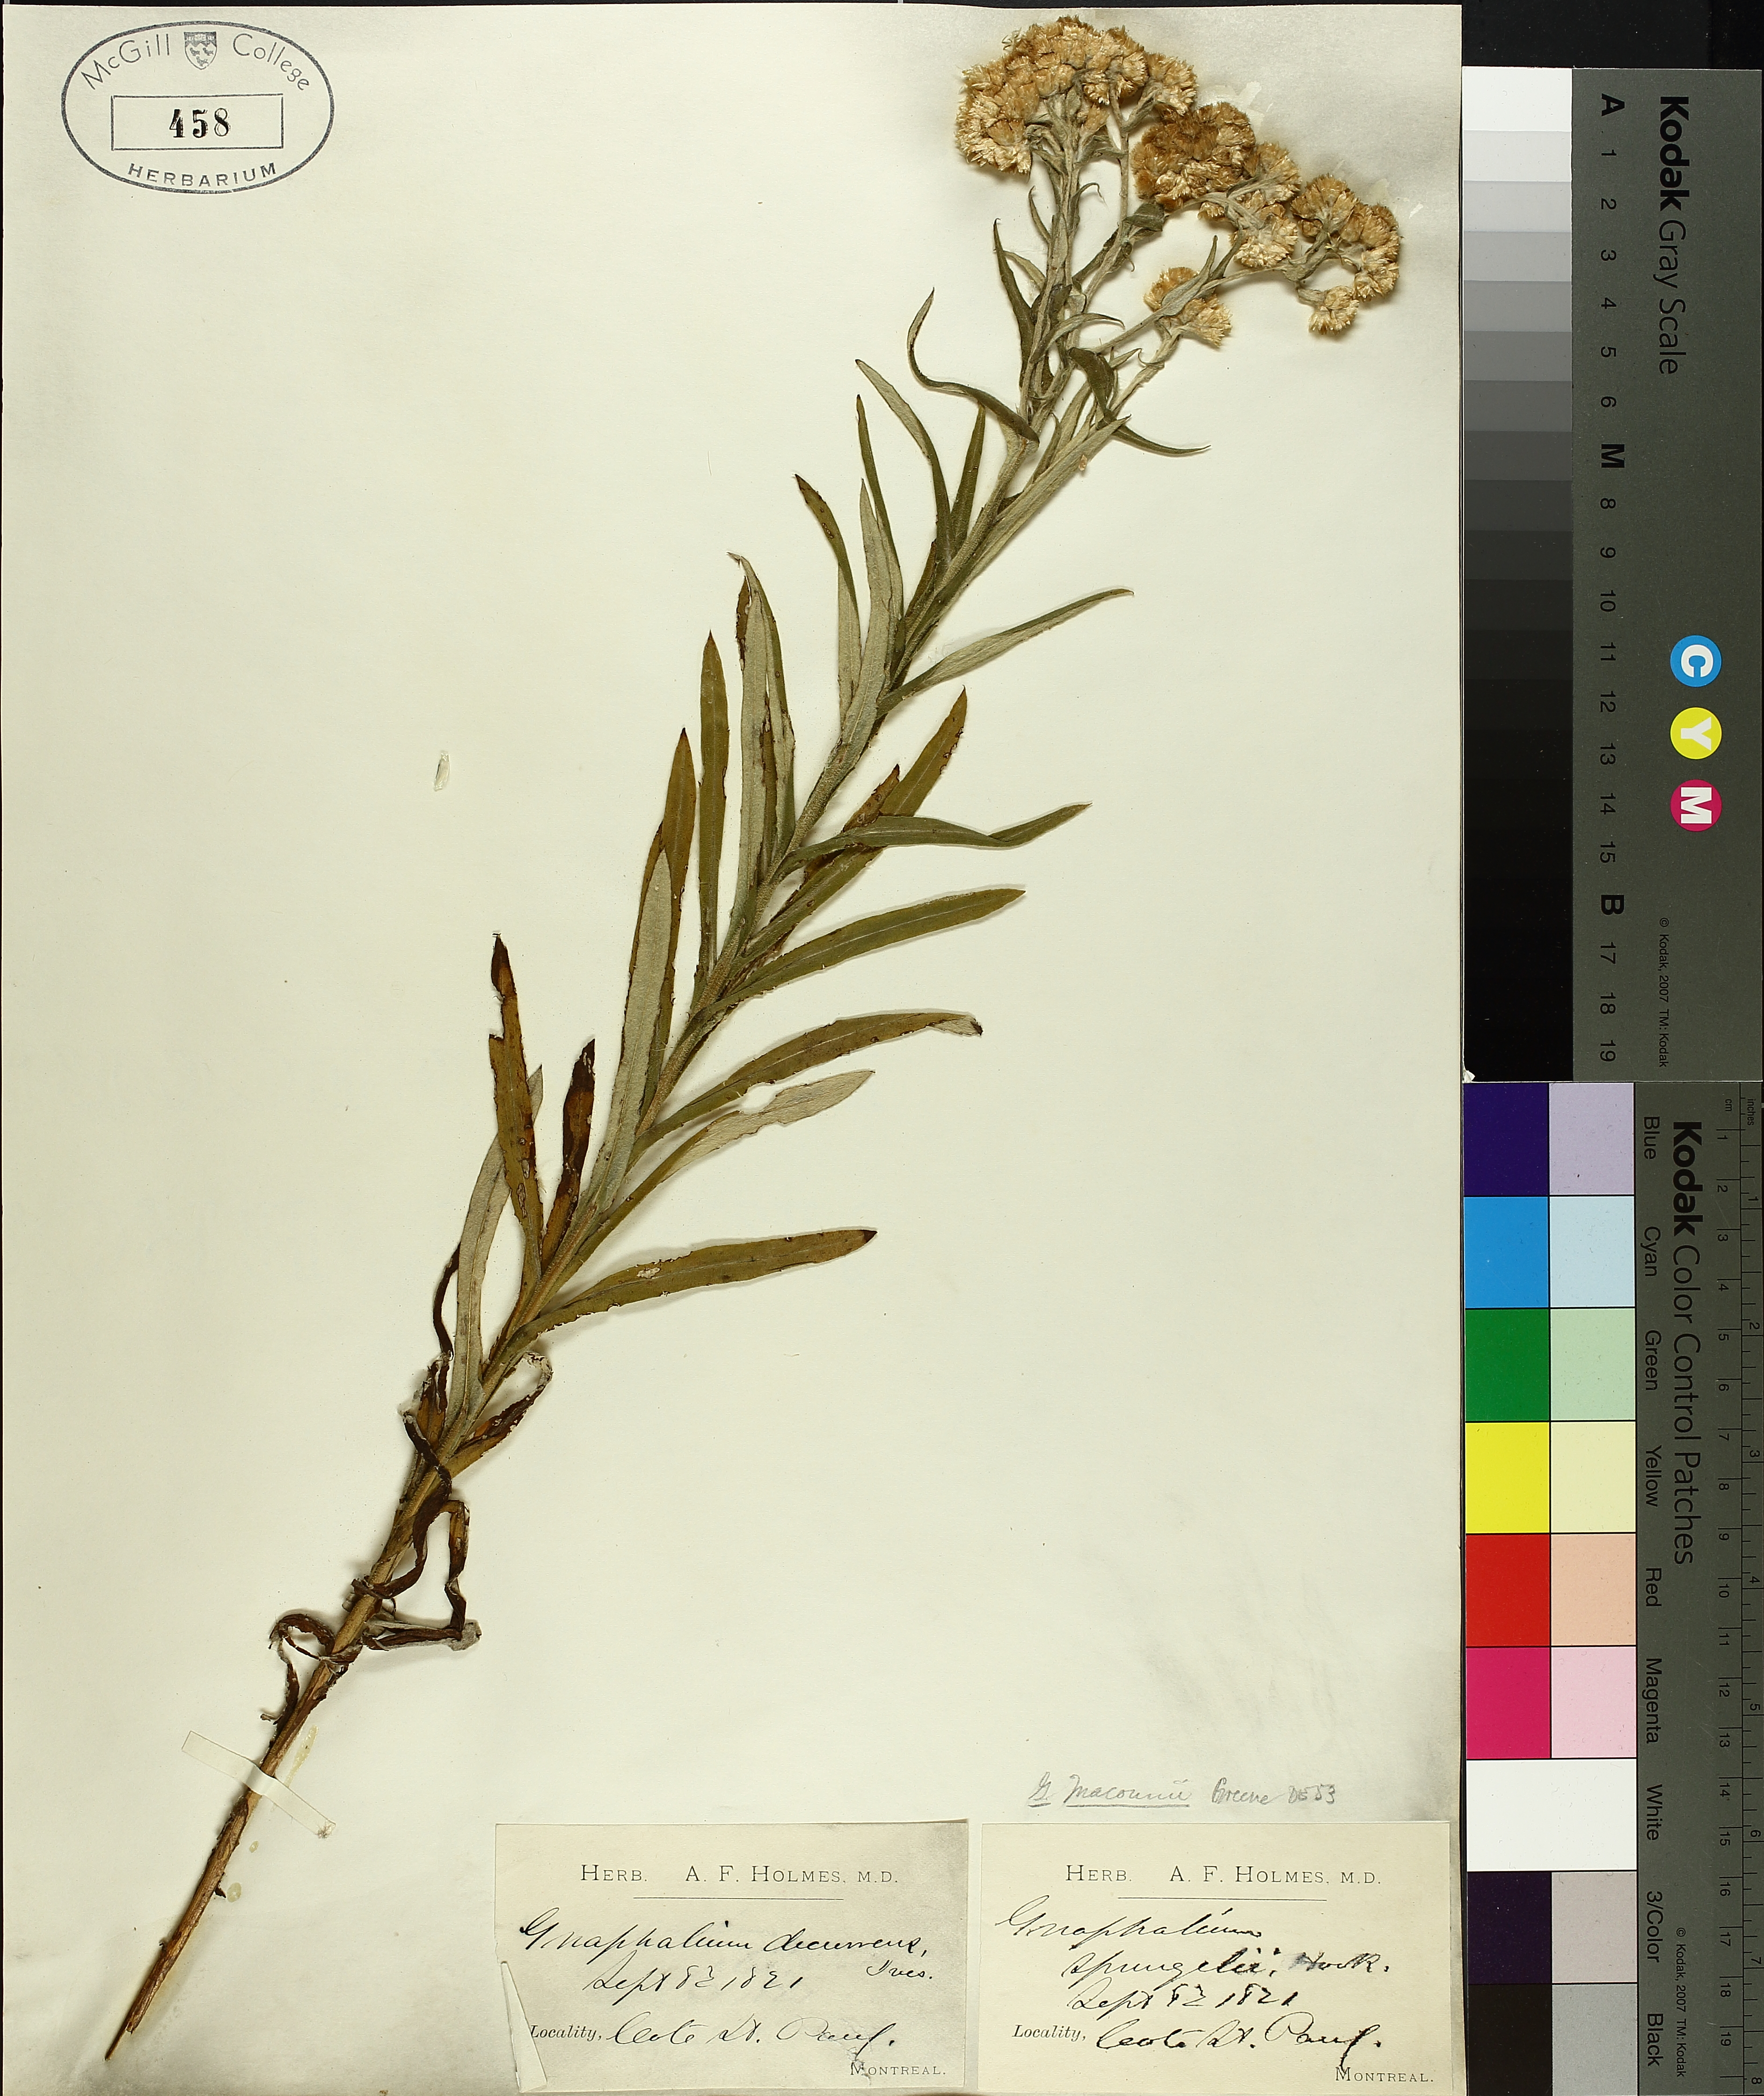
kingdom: Plantae
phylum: Tracheophyta
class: Magnoliopsida
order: Asterales
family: Asteraceae
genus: Pseudognaphalium
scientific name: Pseudognaphalium macounii
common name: Clammy cudweed
